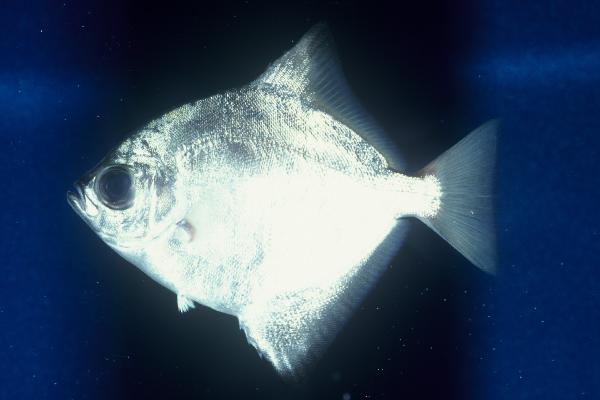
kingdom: Animalia
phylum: Chordata
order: Perciformes
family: Monodactylidae
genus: Monodactylus
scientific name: Monodactylus falciformis
